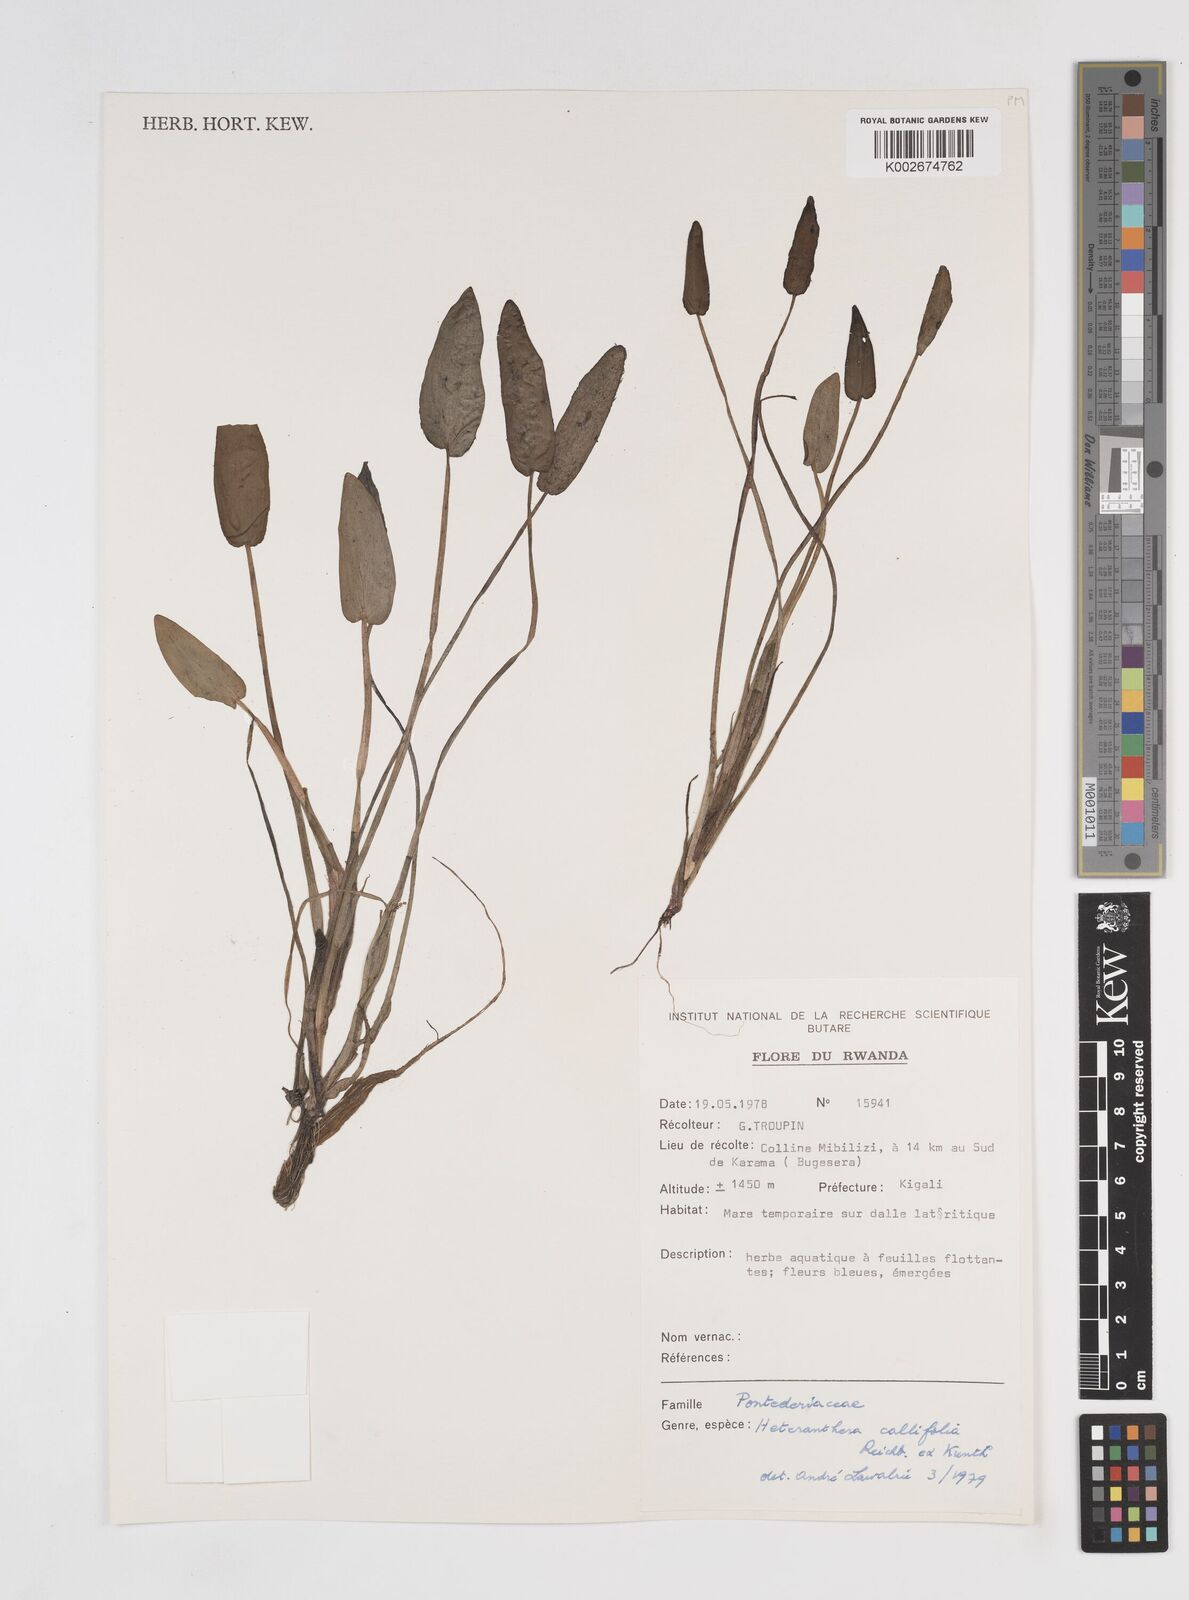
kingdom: Plantae
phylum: Tracheophyta
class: Liliopsida
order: Commelinales
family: Pontederiaceae
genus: Heteranthera
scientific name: Heteranthera callifolia
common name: Mud plantain
